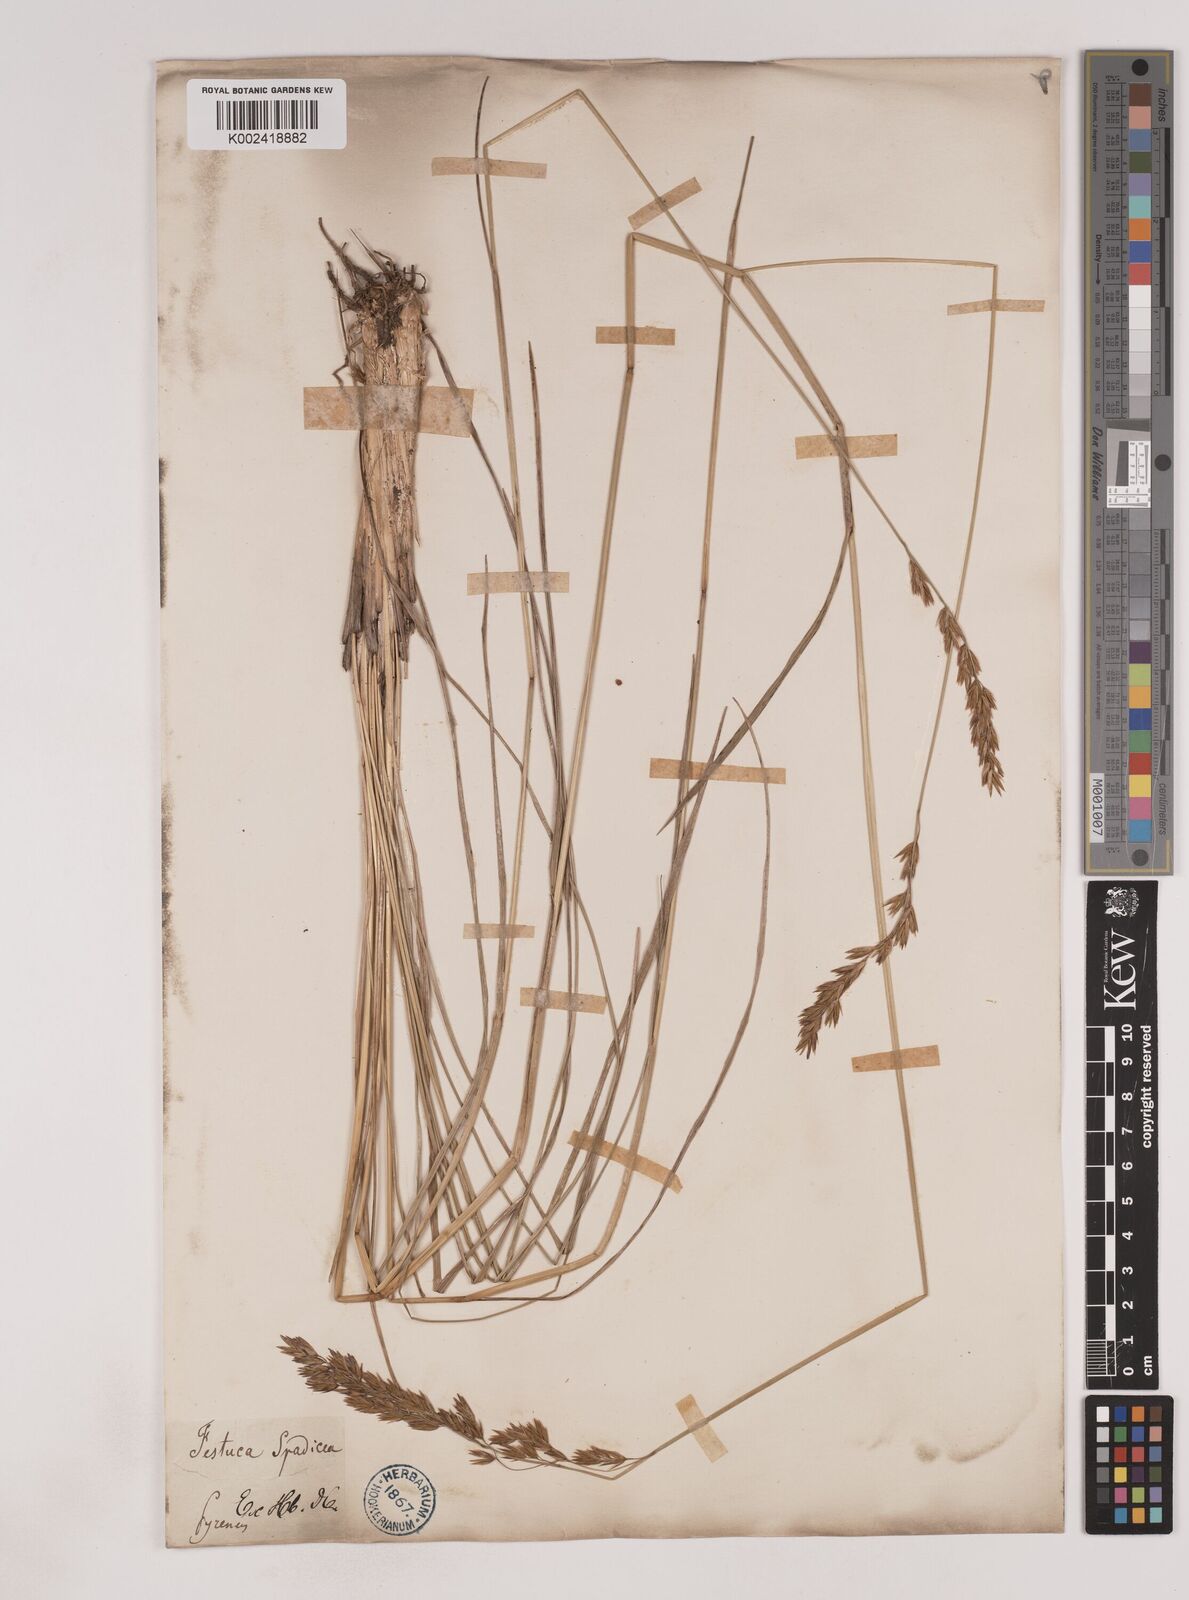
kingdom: Plantae
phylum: Tracheophyta
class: Liliopsida
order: Poales
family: Poaceae
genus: Patzkea
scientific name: Patzkea paniculata
